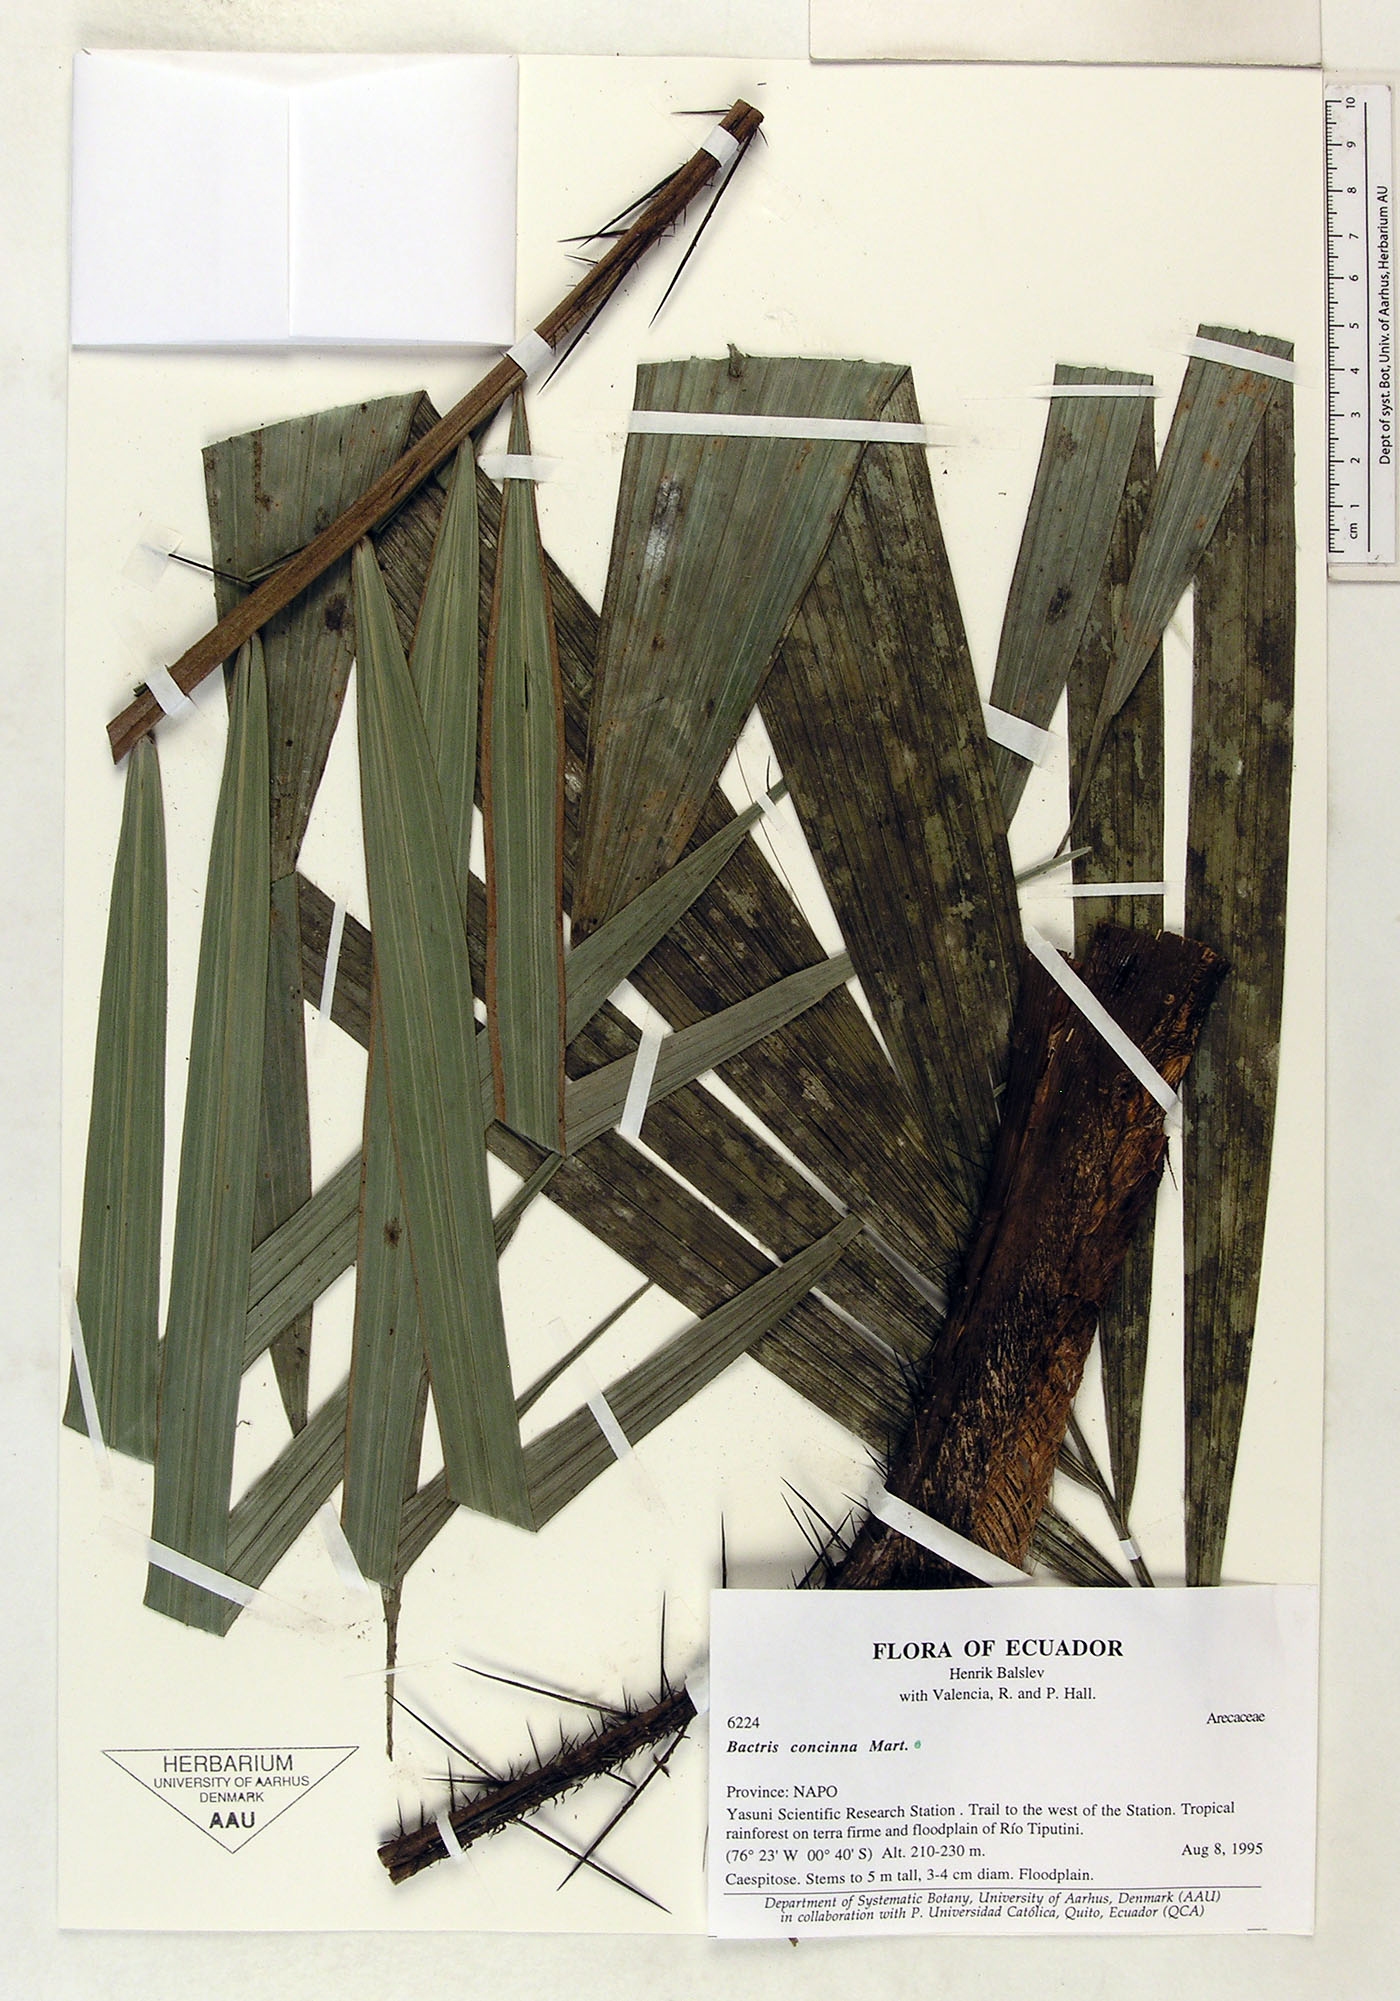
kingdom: Plantae
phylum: Tracheophyta
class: Liliopsida
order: Arecales
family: Arecaceae
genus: Bactris
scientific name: Bactris concinna
